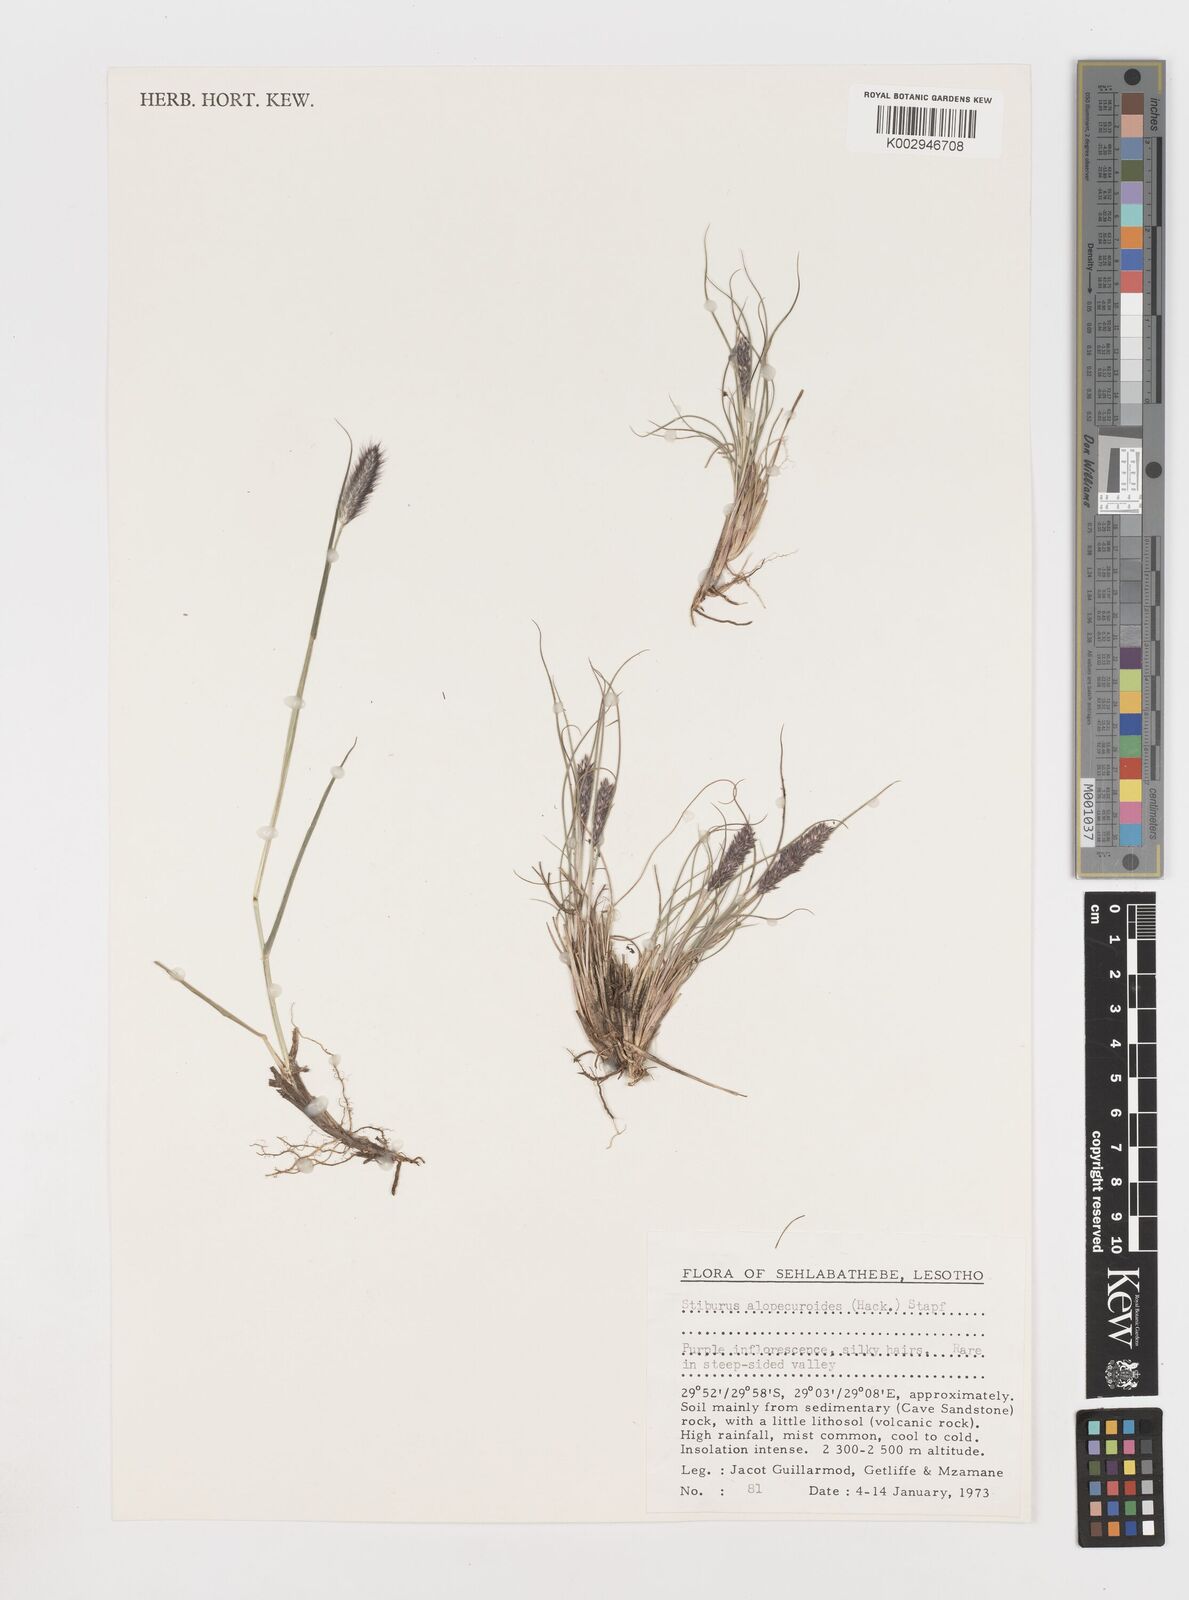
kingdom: Plantae
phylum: Tracheophyta
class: Liliopsida
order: Poales
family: Poaceae
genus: Stiburus
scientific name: Stiburus alopecuroides
